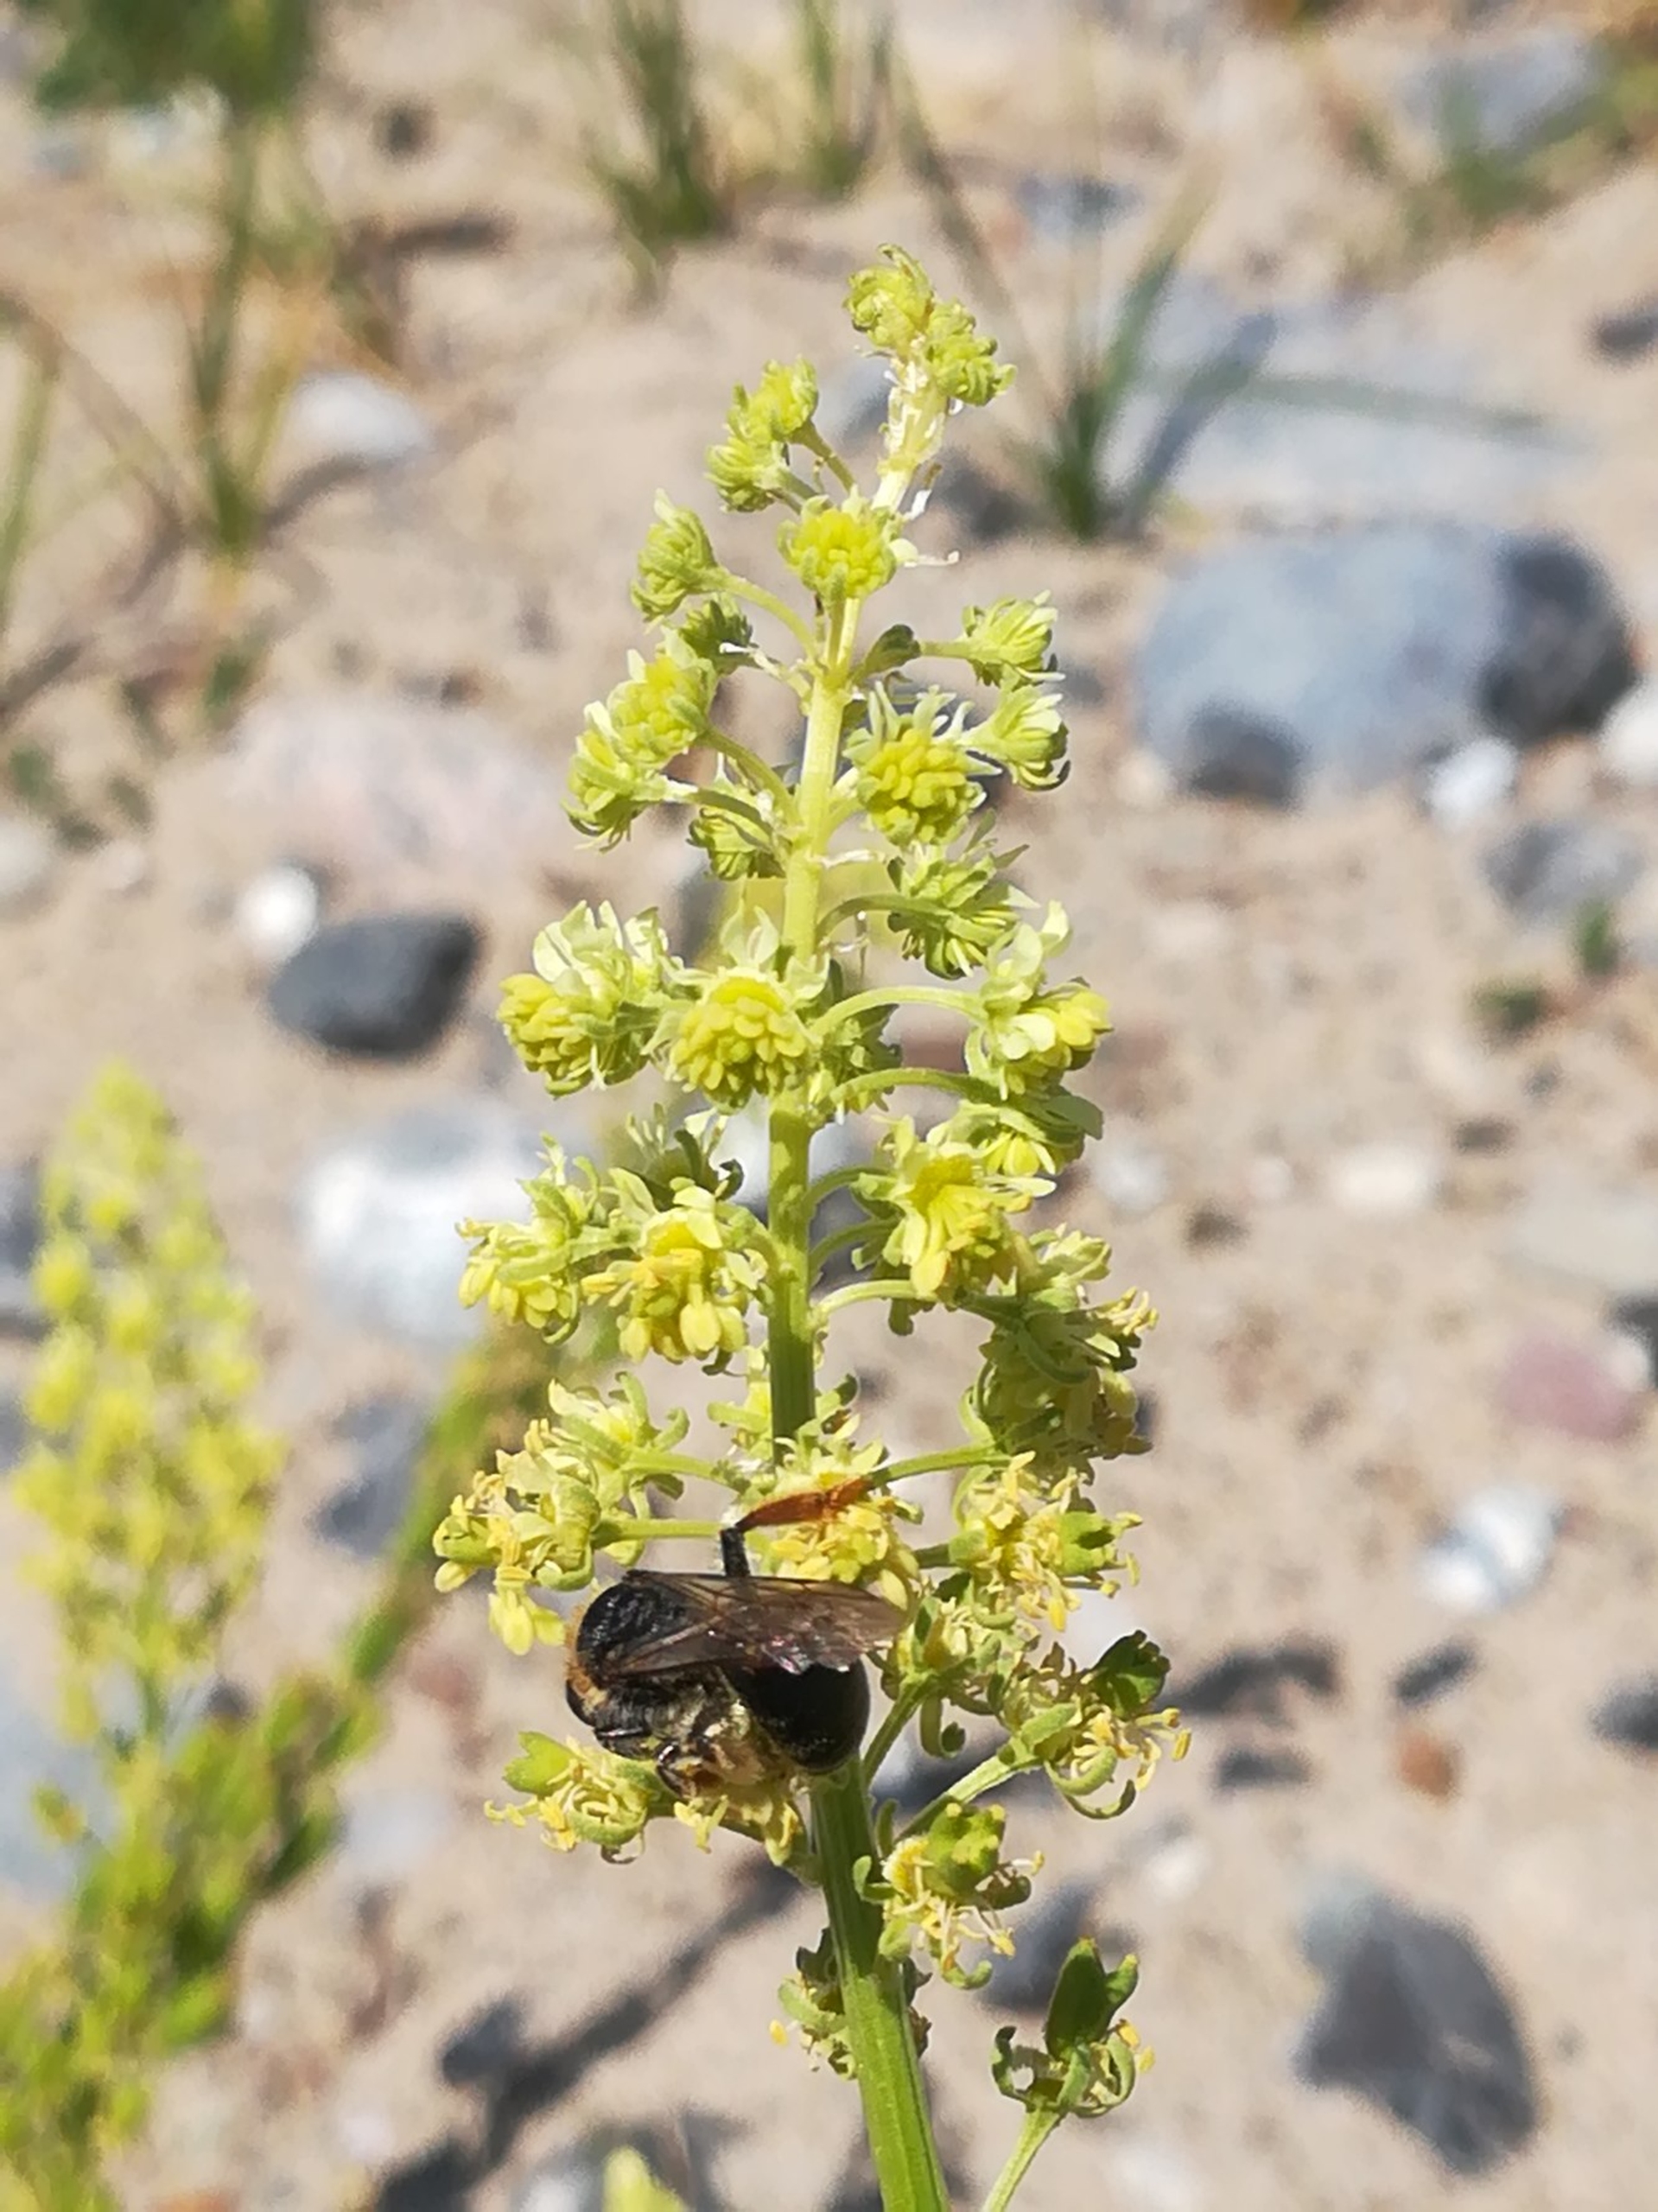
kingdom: Plantae
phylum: Tracheophyta
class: Magnoliopsida
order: Brassicales
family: Resedaceae
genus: Reseda
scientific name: Reseda lutea
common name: Gul reseda
